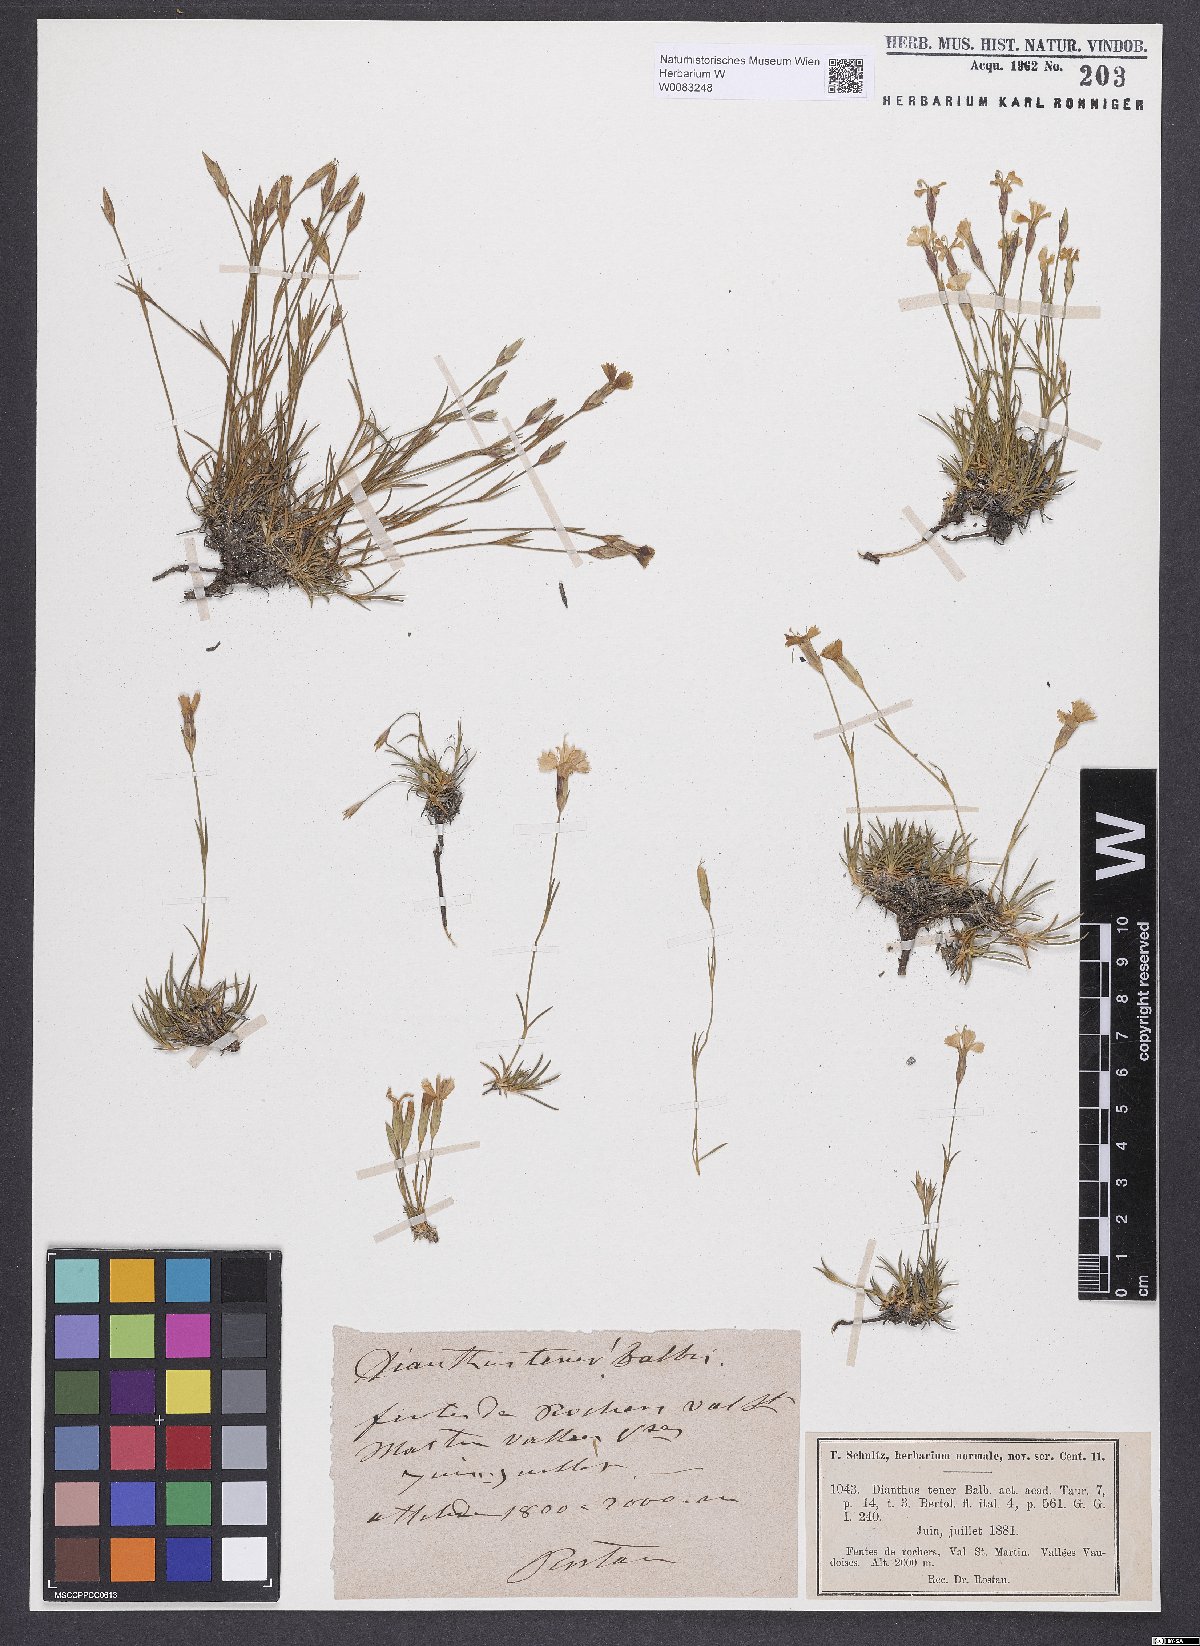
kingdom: Plantae
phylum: Tracheophyta
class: Magnoliopsida
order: Caryophyllales
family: Caryophyllaceae
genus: Dianthus
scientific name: Dianthus furcatus
